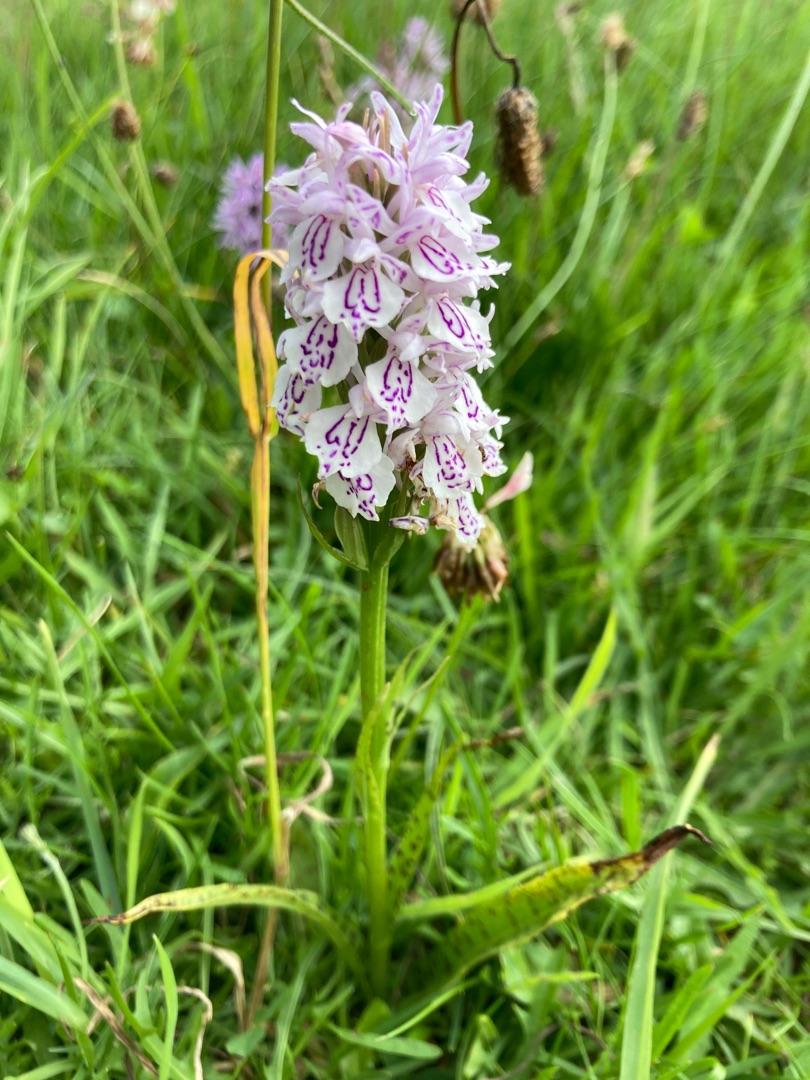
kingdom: Plantae
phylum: Tracheophyta
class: Liliopsida
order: Asparagales
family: Orchidaceae
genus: Dactylorhiza
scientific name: Dactylorhiza maculata
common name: Plettet gøgeurt (underart)
